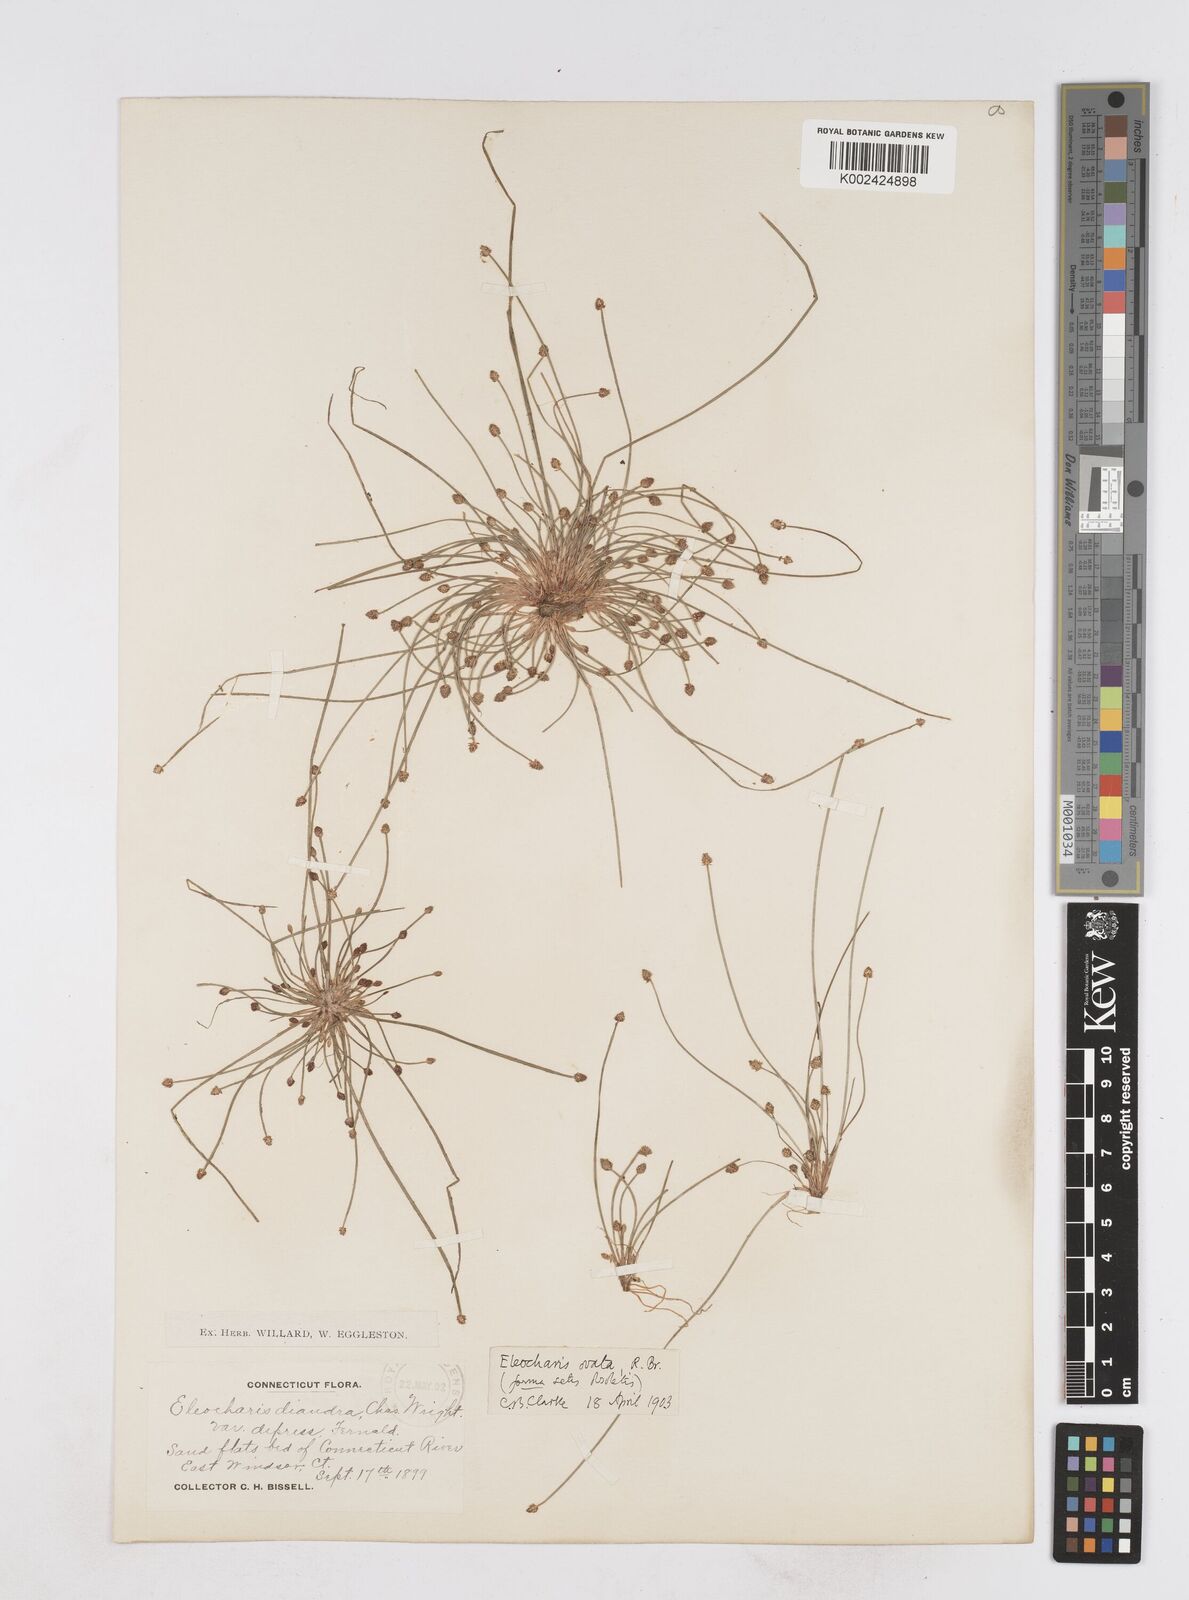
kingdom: Plantae
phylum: Tracheophyta
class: Liliopsida
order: Poales
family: Cyperaceae
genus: Eleocharis
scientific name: Eleocharis ovata
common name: Oval spike-rush
